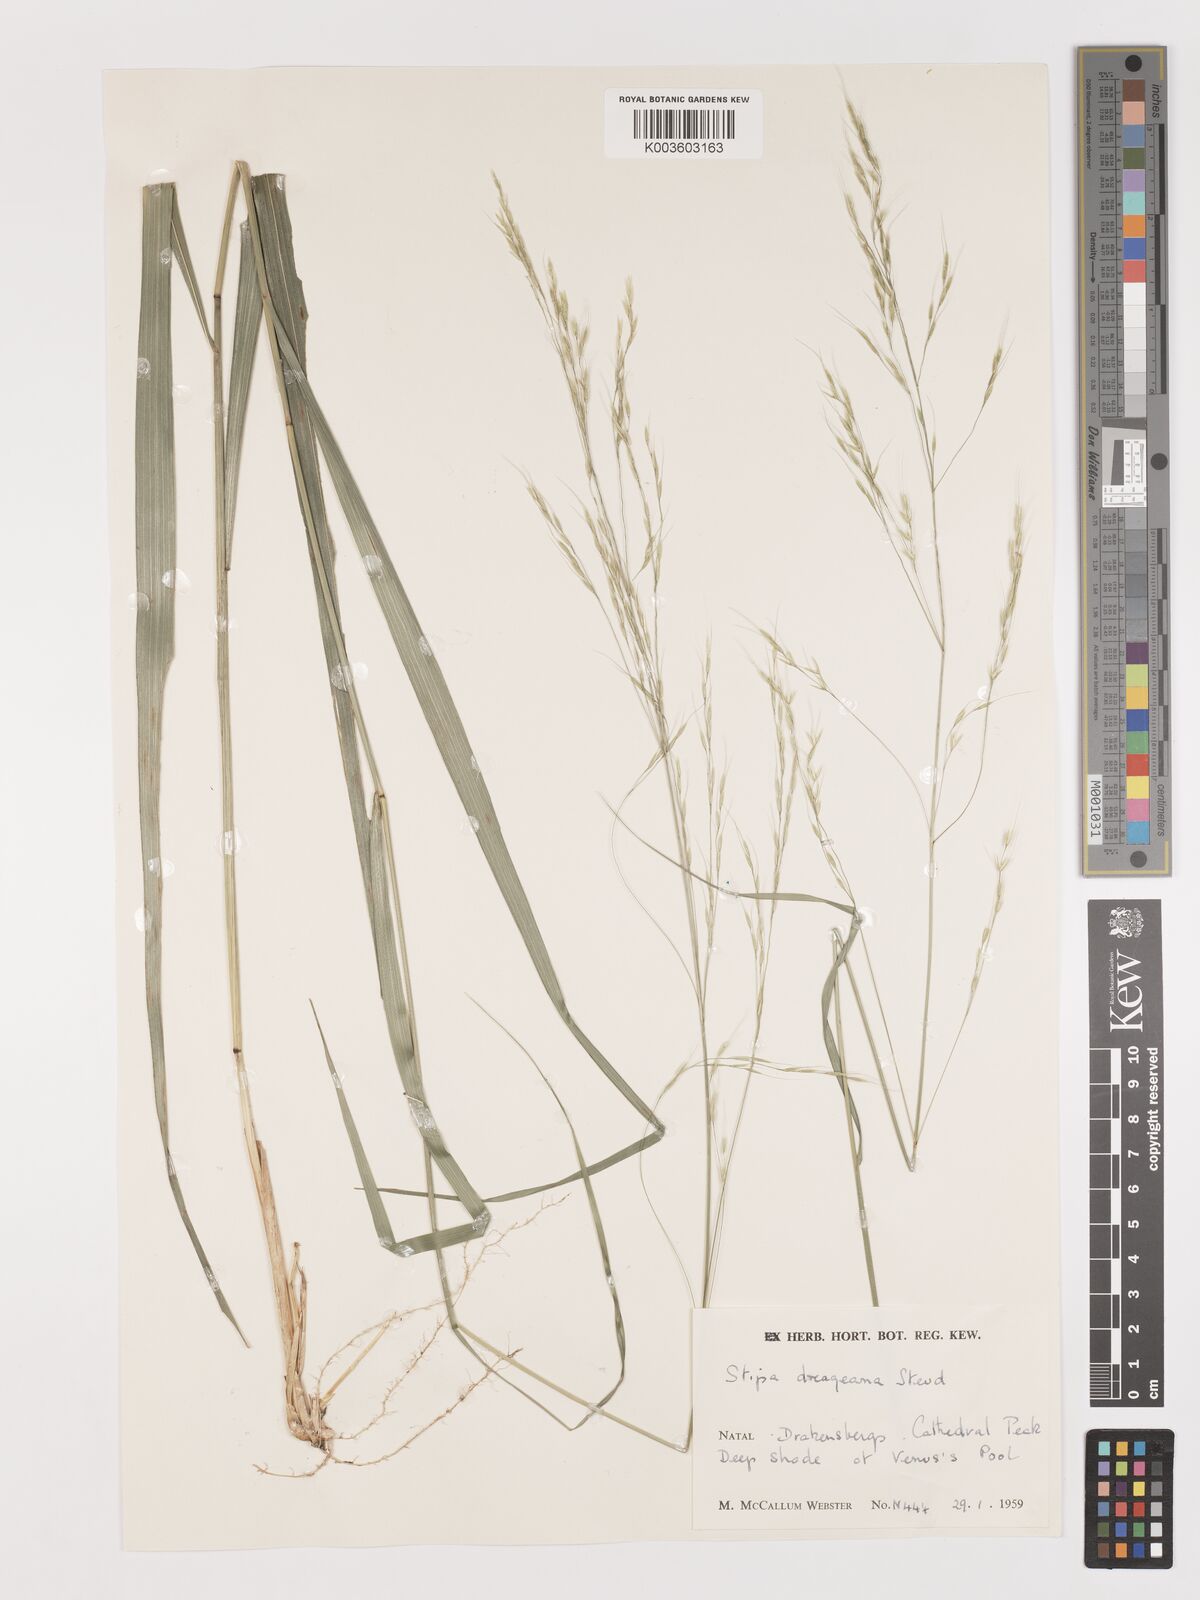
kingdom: Plantae
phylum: Tracheophyta
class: Liliopsida
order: Poales
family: Poaceae
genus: Stipa
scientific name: Stipa dregeana
